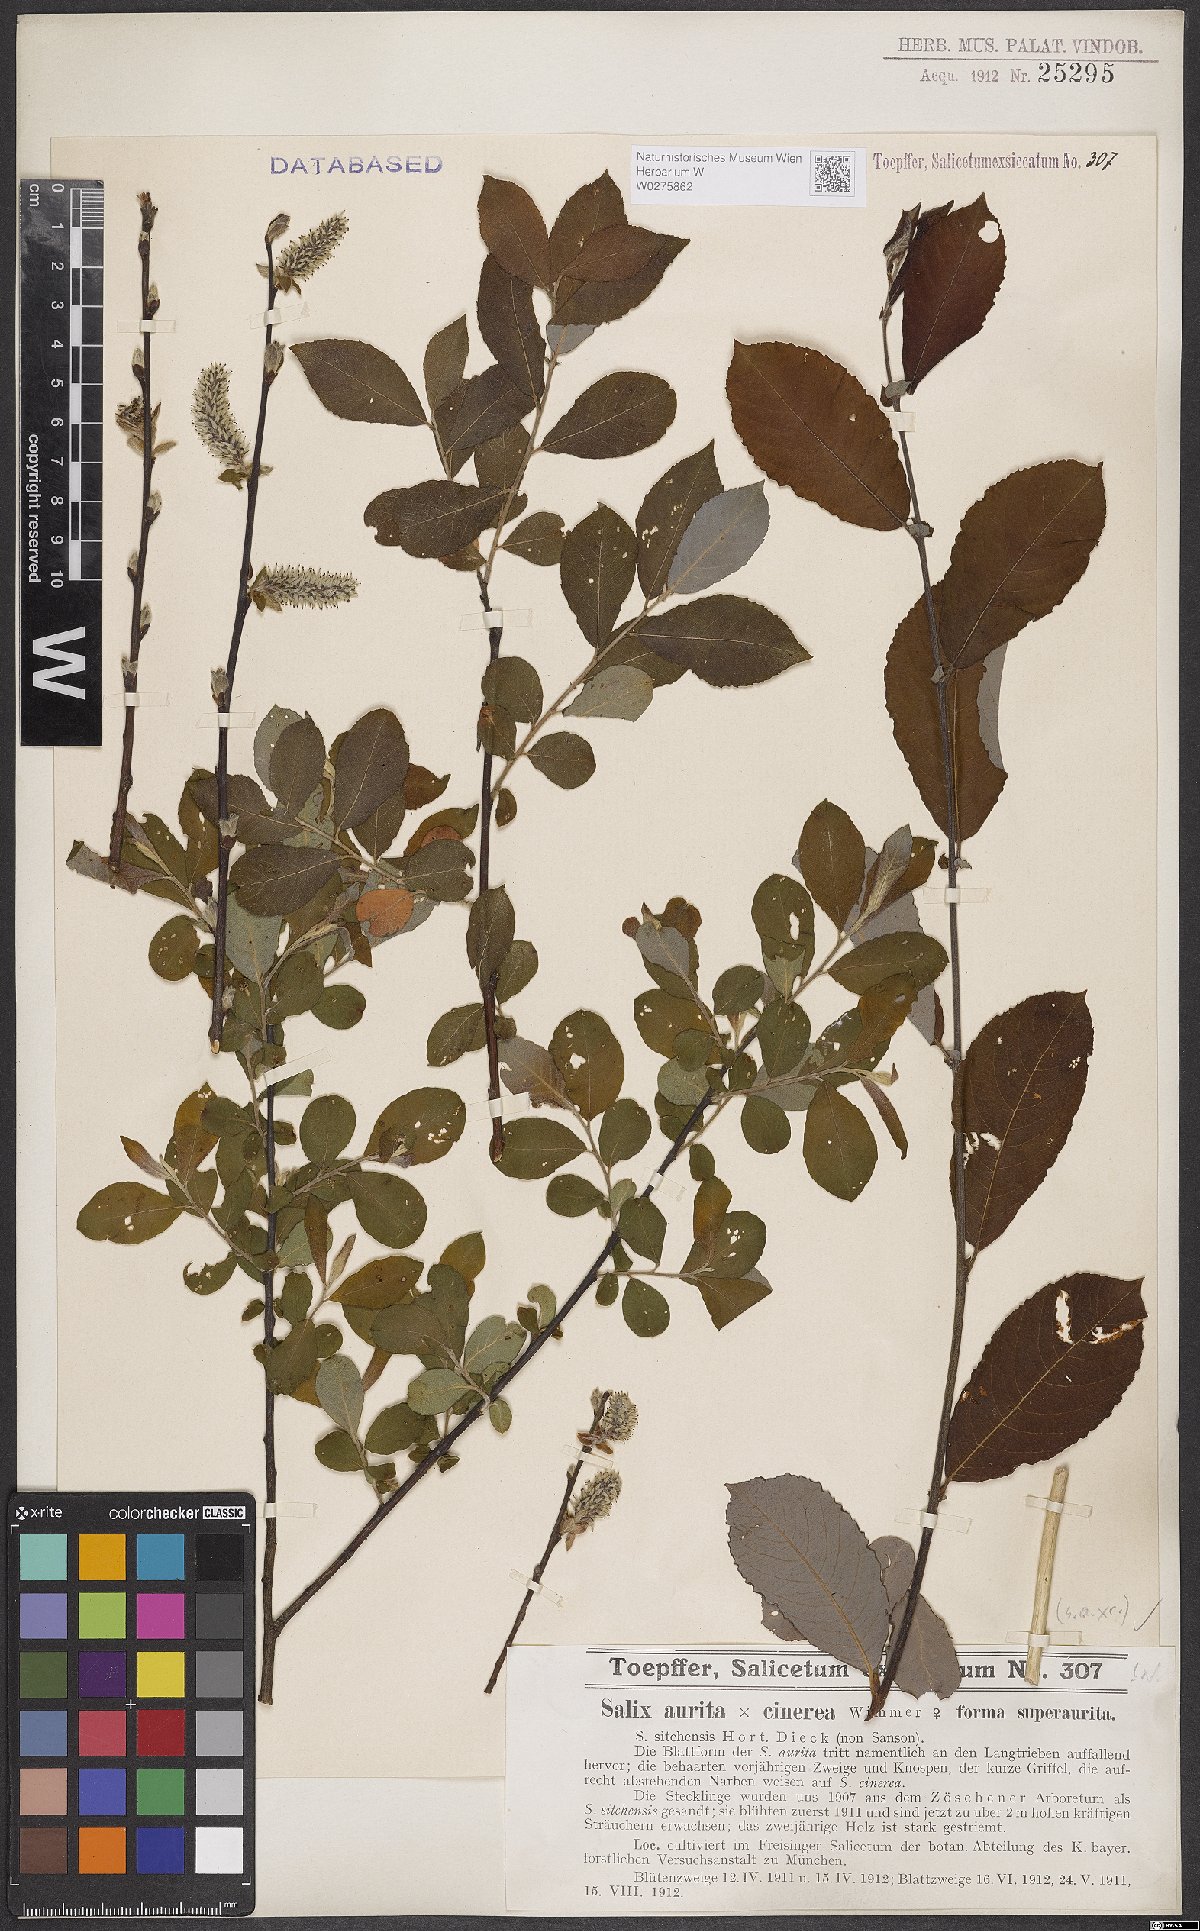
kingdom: Plantae
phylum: Tracheophyta
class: Magnoliopsida
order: Malpighiales
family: Salicaceae
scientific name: Salicaceae
